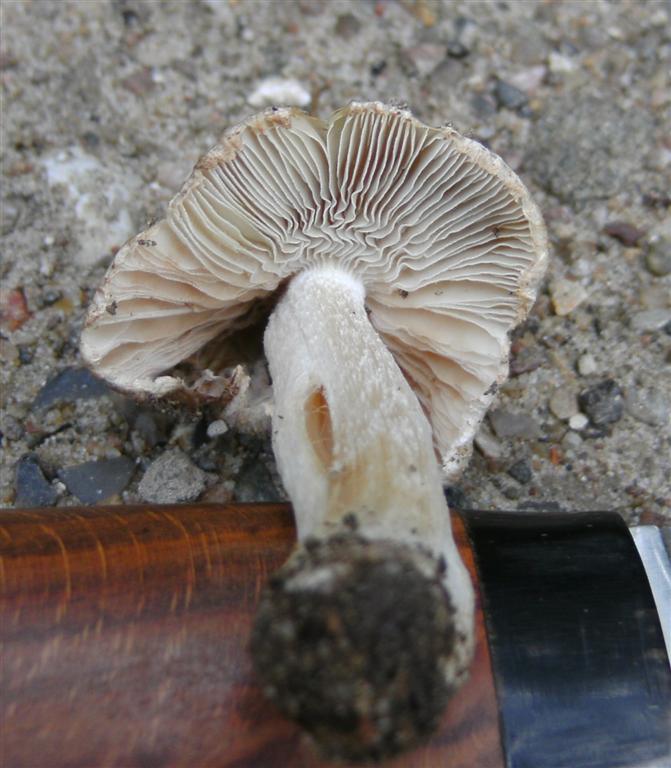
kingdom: Fungi
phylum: Basidiomycota
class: Agaricomycetes
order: Agaricales
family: Inocybaceae
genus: Inosperma
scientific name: Inosperma
